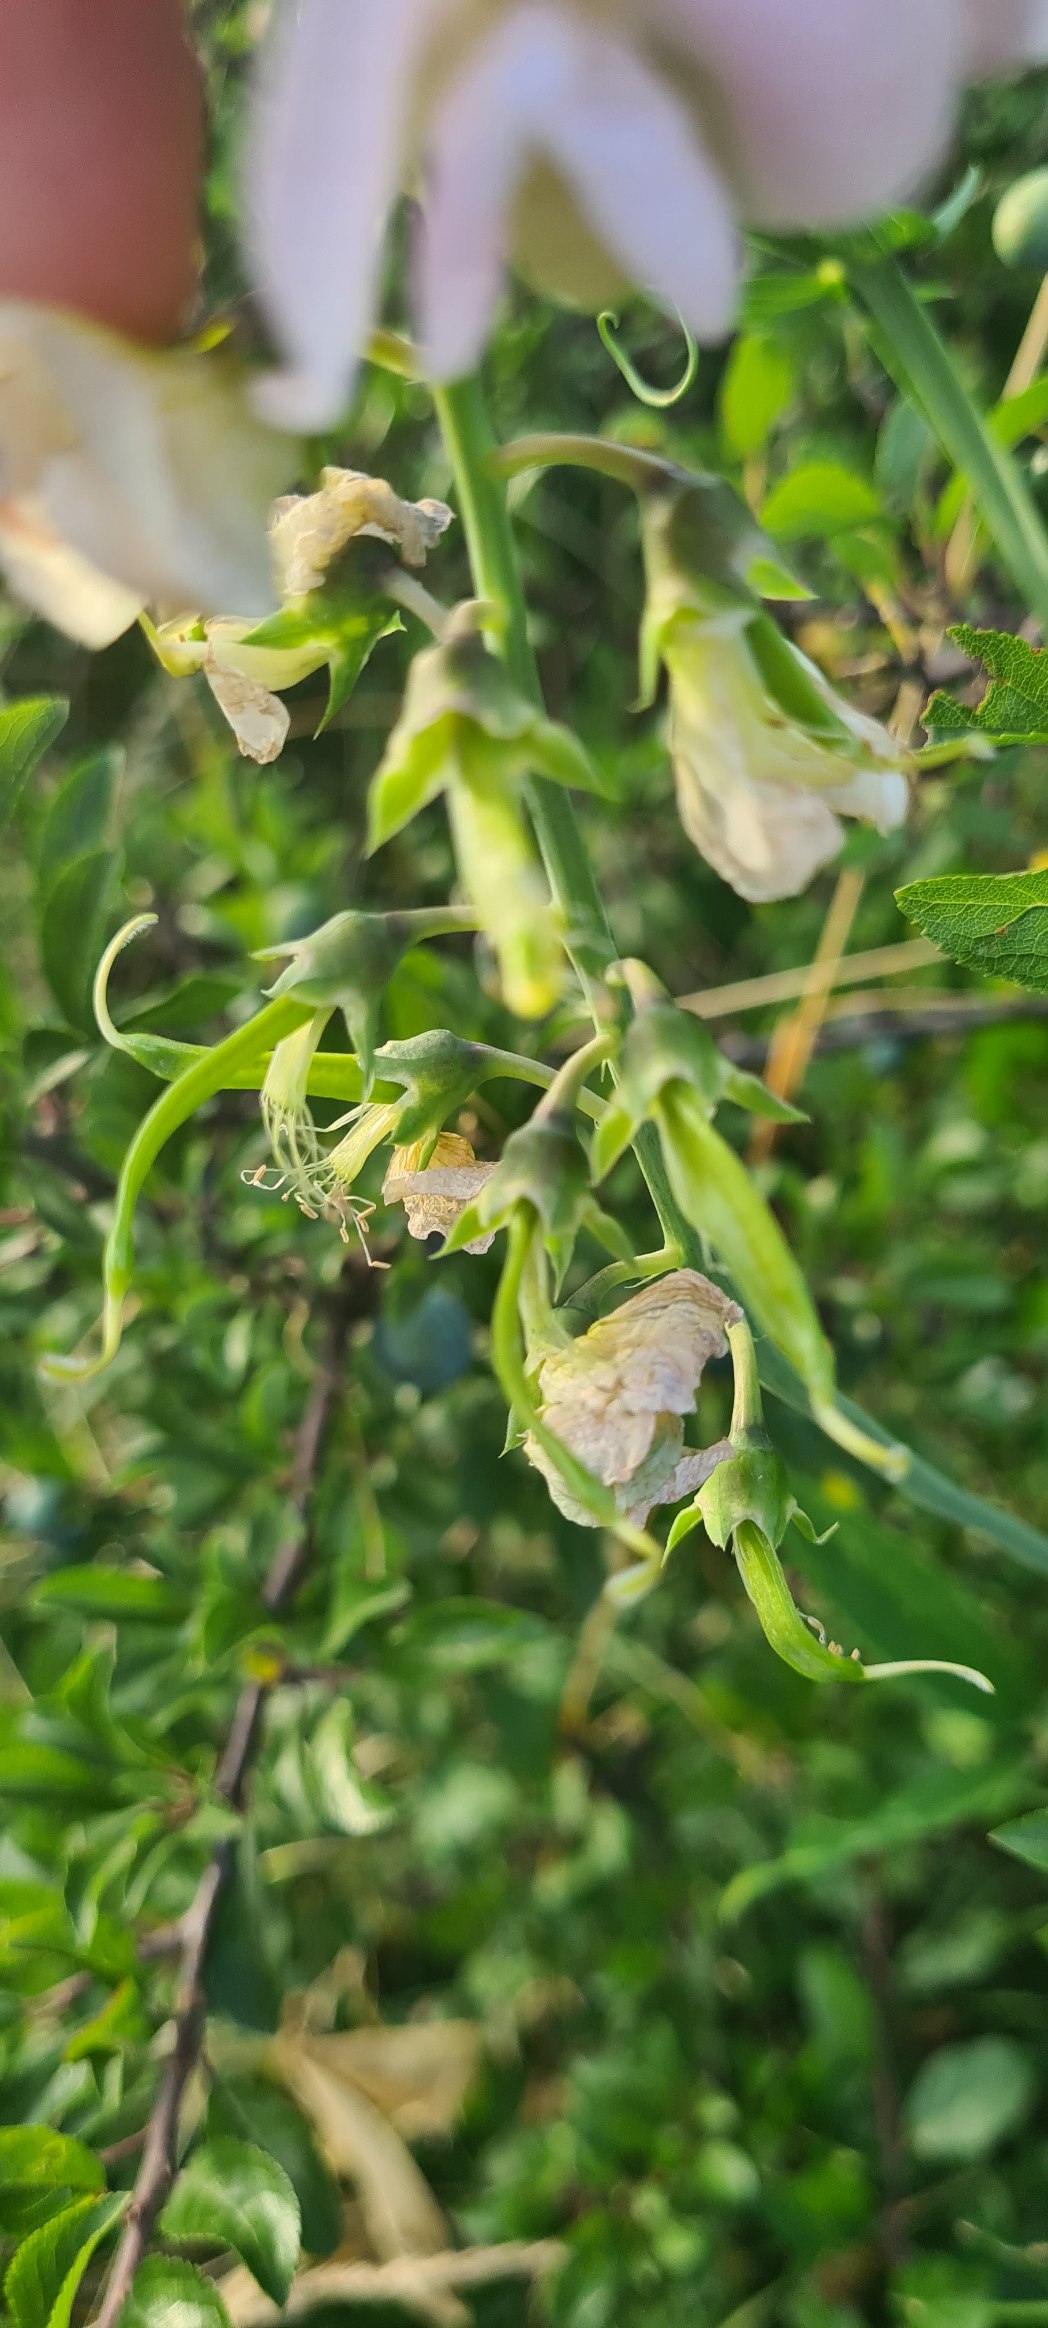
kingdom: Plantae
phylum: Tracheophyta
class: Magnoliopsida
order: Fabales
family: Fabaceae
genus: Lathyrus
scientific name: Lathyrus latifolius
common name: Flerårig ærteblomst
